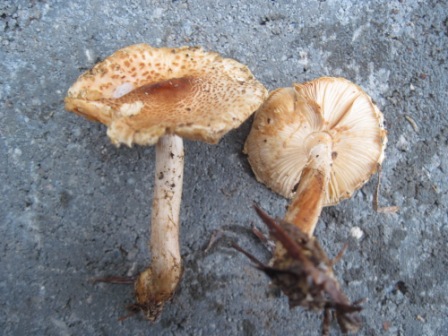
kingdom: Fungi
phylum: Basidiomycota
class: Agaricomycetes
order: Agaricales
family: Agaricaceae
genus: Lepiota
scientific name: Lepiota castanea
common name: kastaniebrun parasolhat
